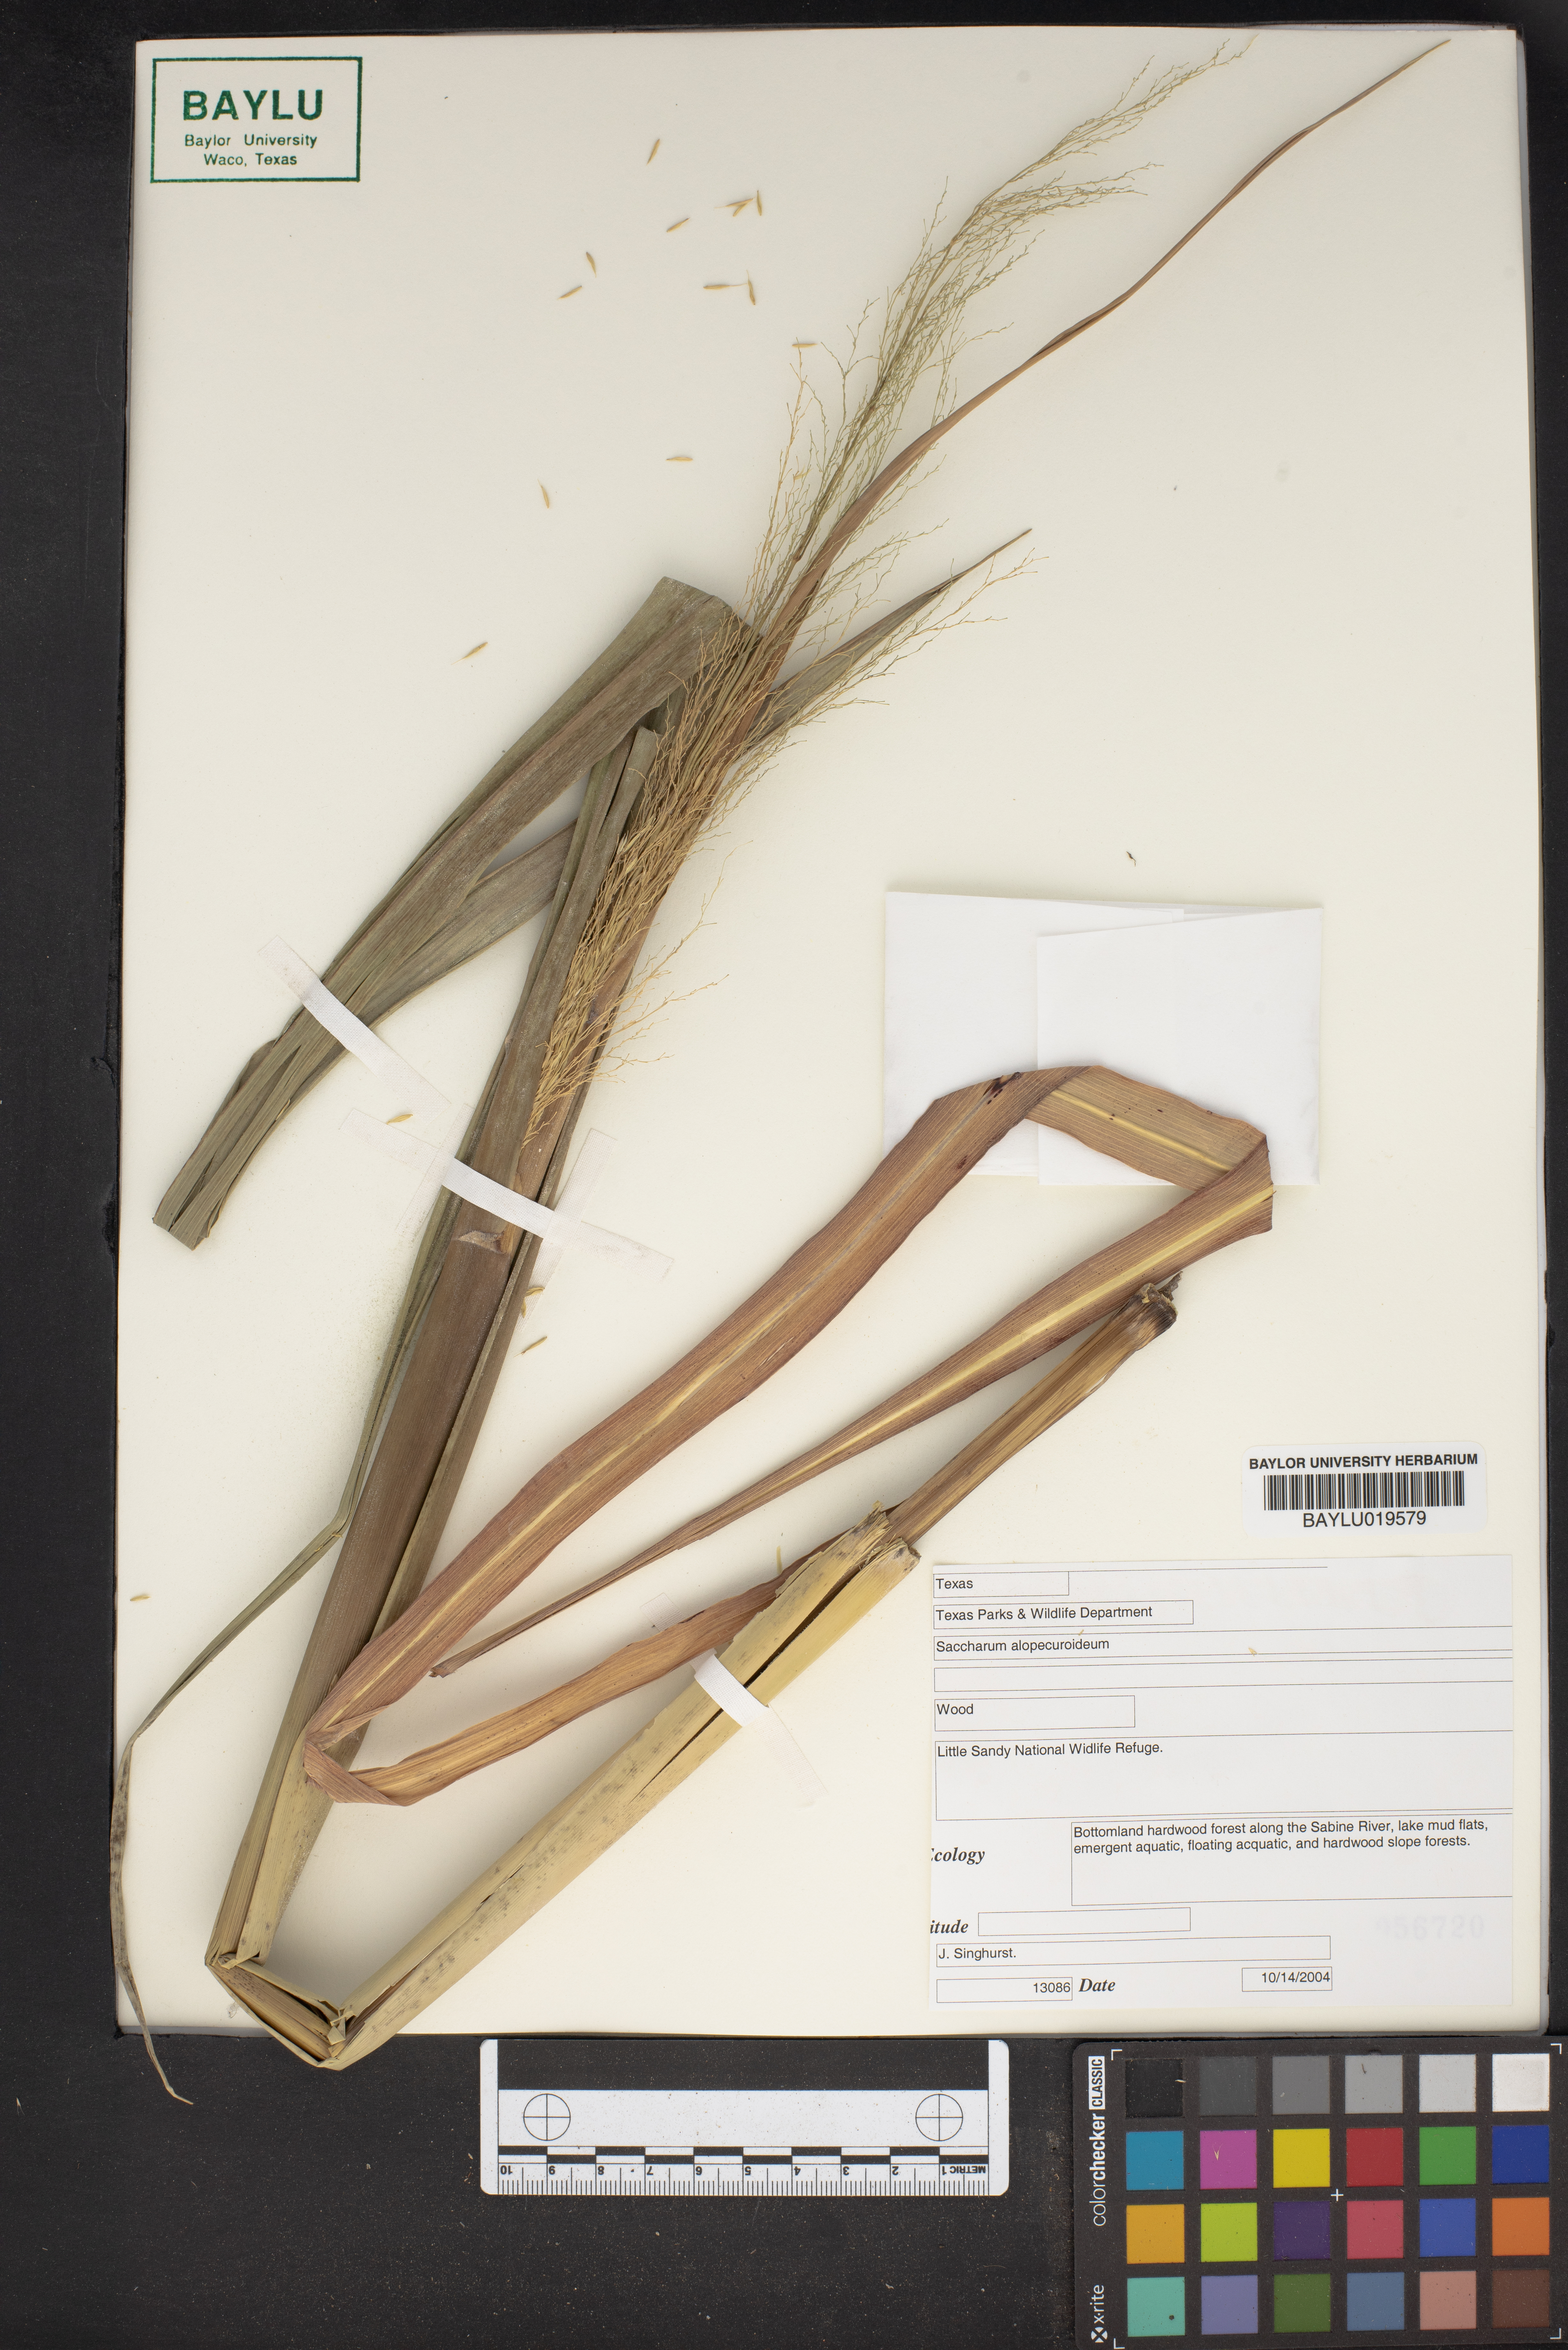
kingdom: Plantae
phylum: Tracheophyta
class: Liliopsida
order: Poales
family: Poaceae
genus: Erianthus
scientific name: Erianthus alopecuroides
